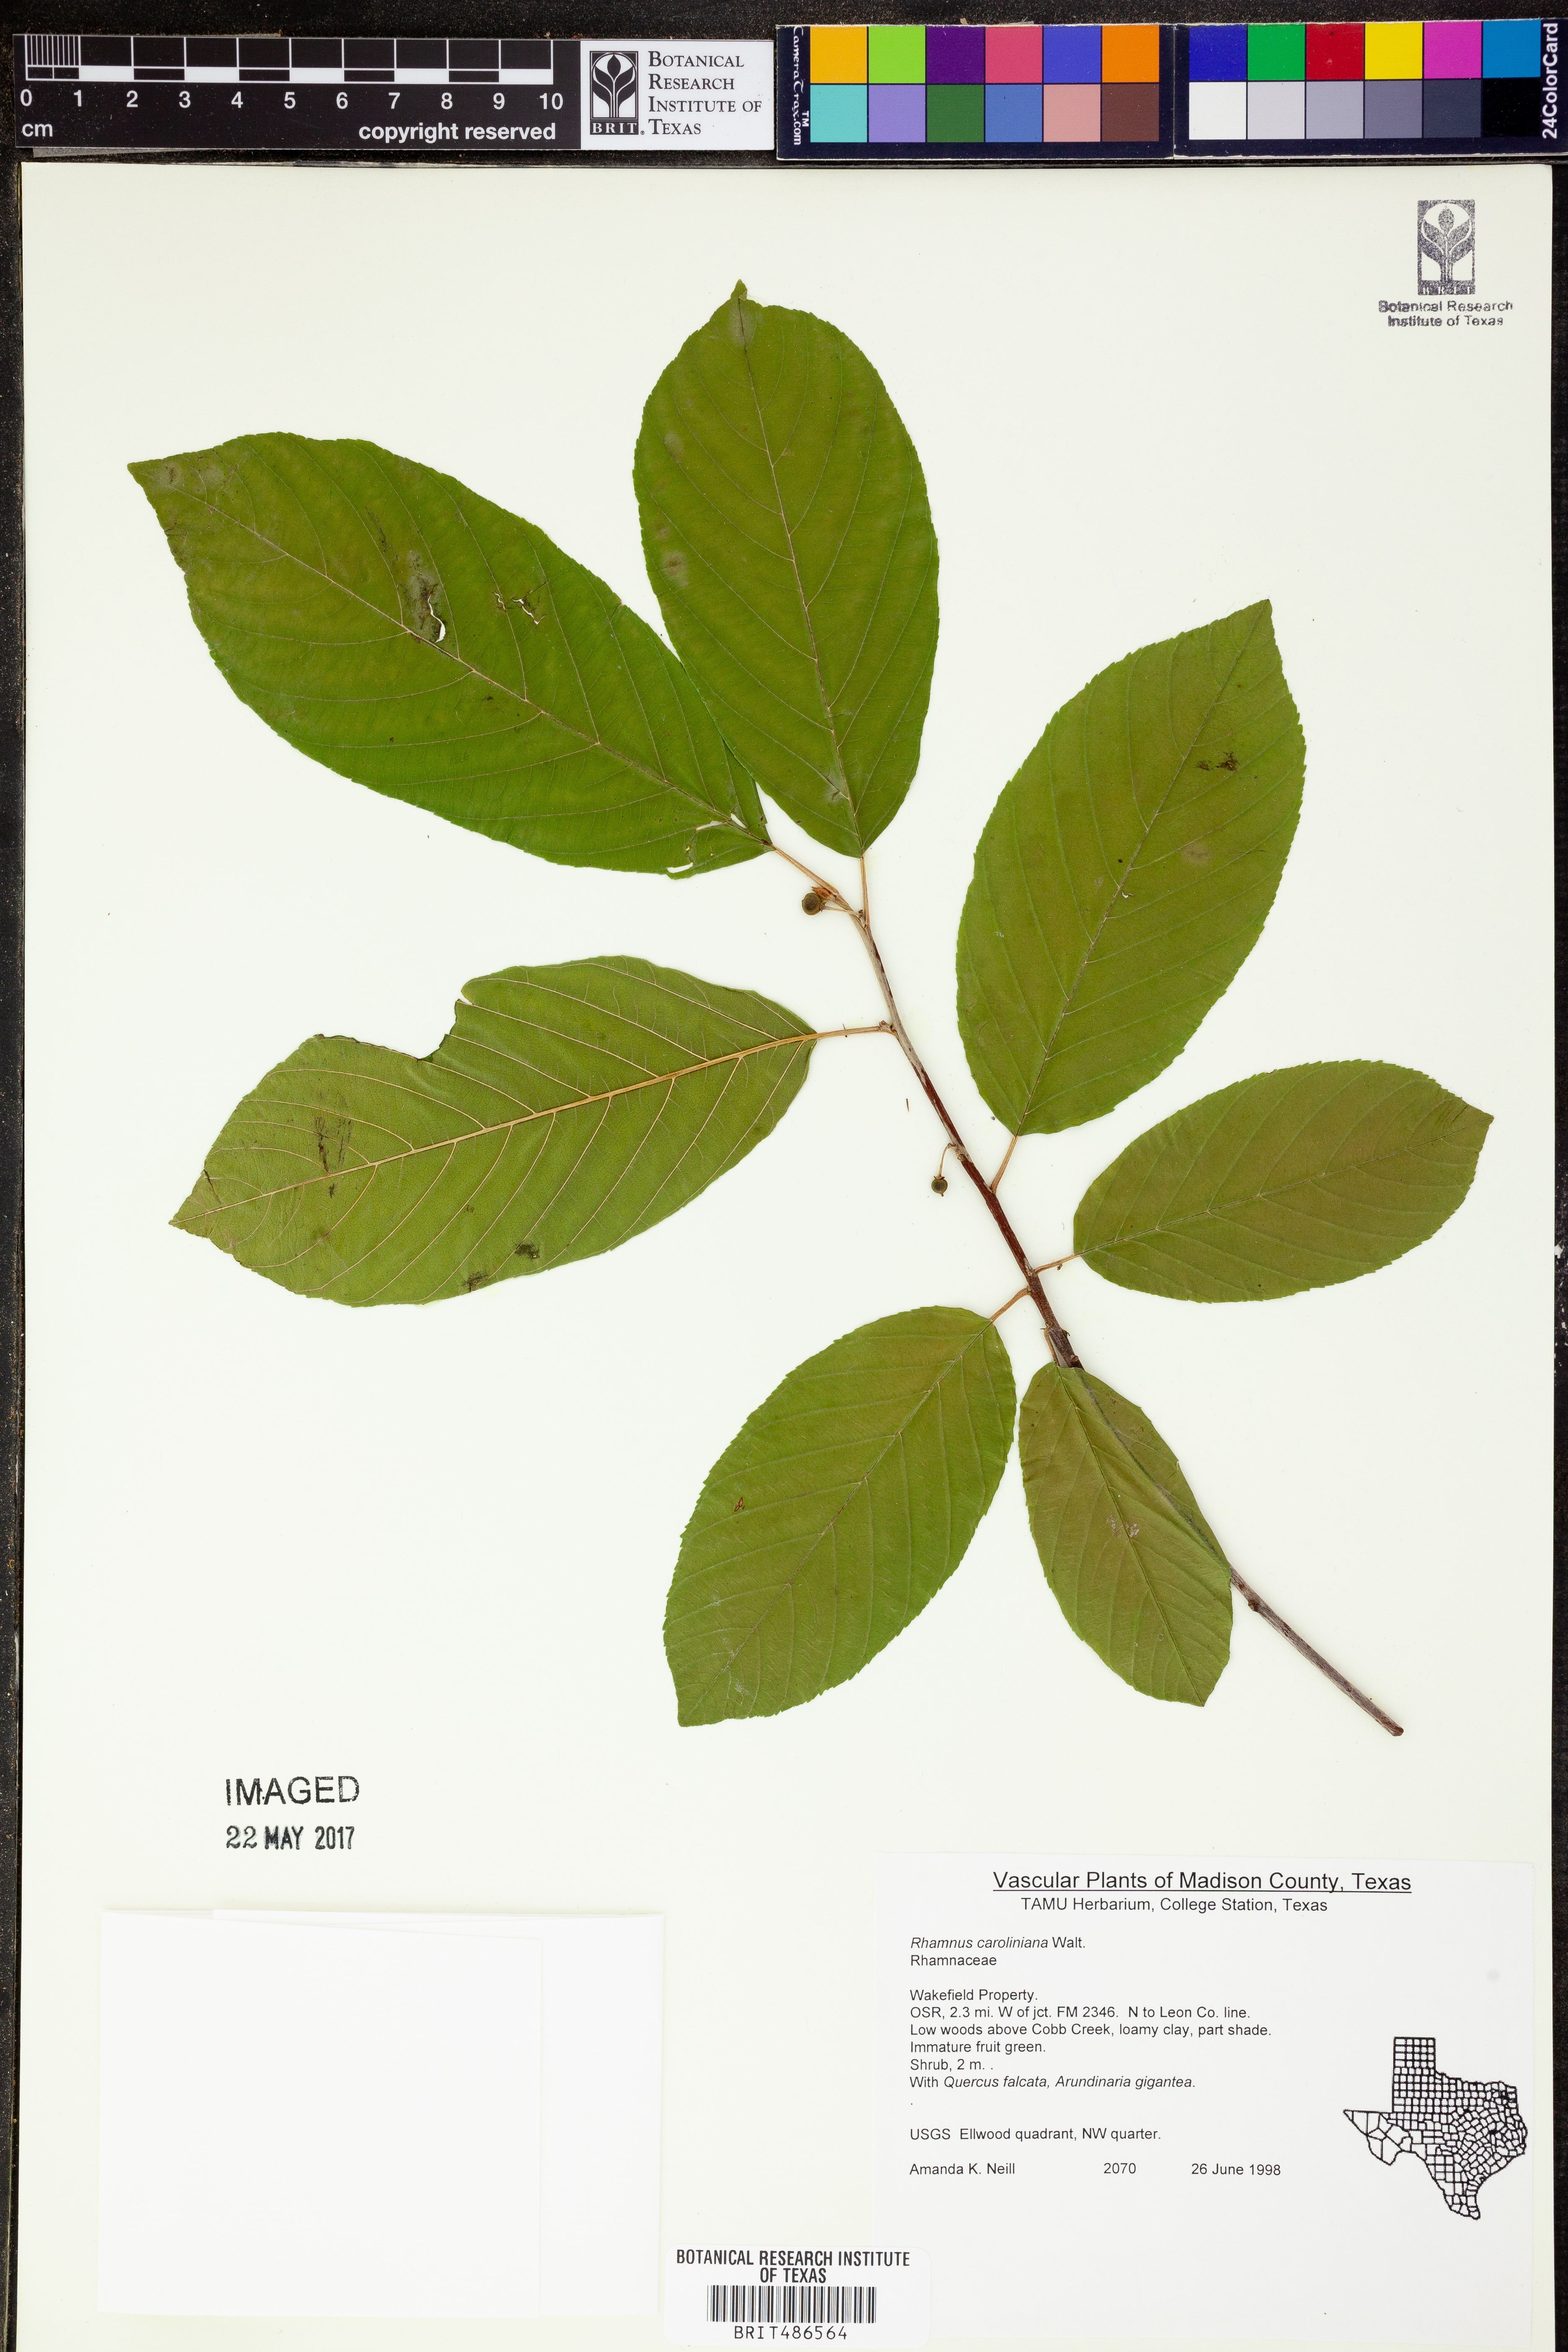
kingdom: Plantae
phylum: Tracheophyta
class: Magnoliopsida
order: Rosales
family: Rhamnaceae
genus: Frangula
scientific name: Frangula caroliniana
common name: Carolina buckthorn
